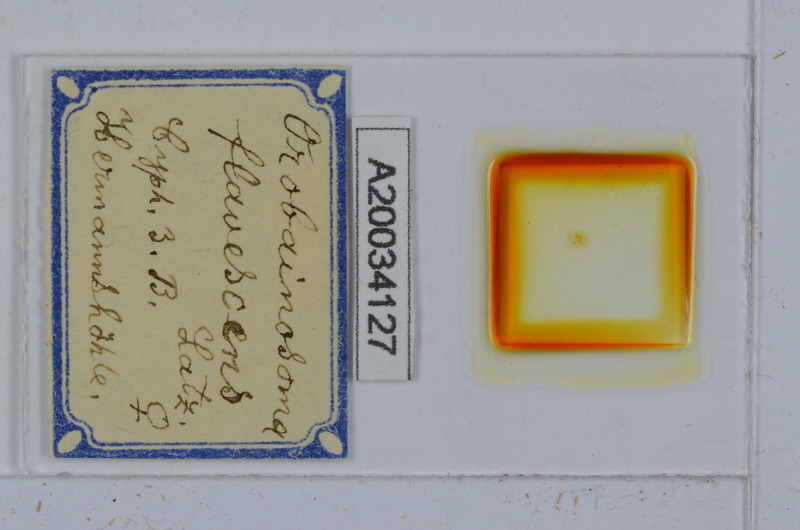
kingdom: Animalia
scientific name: Animalia
